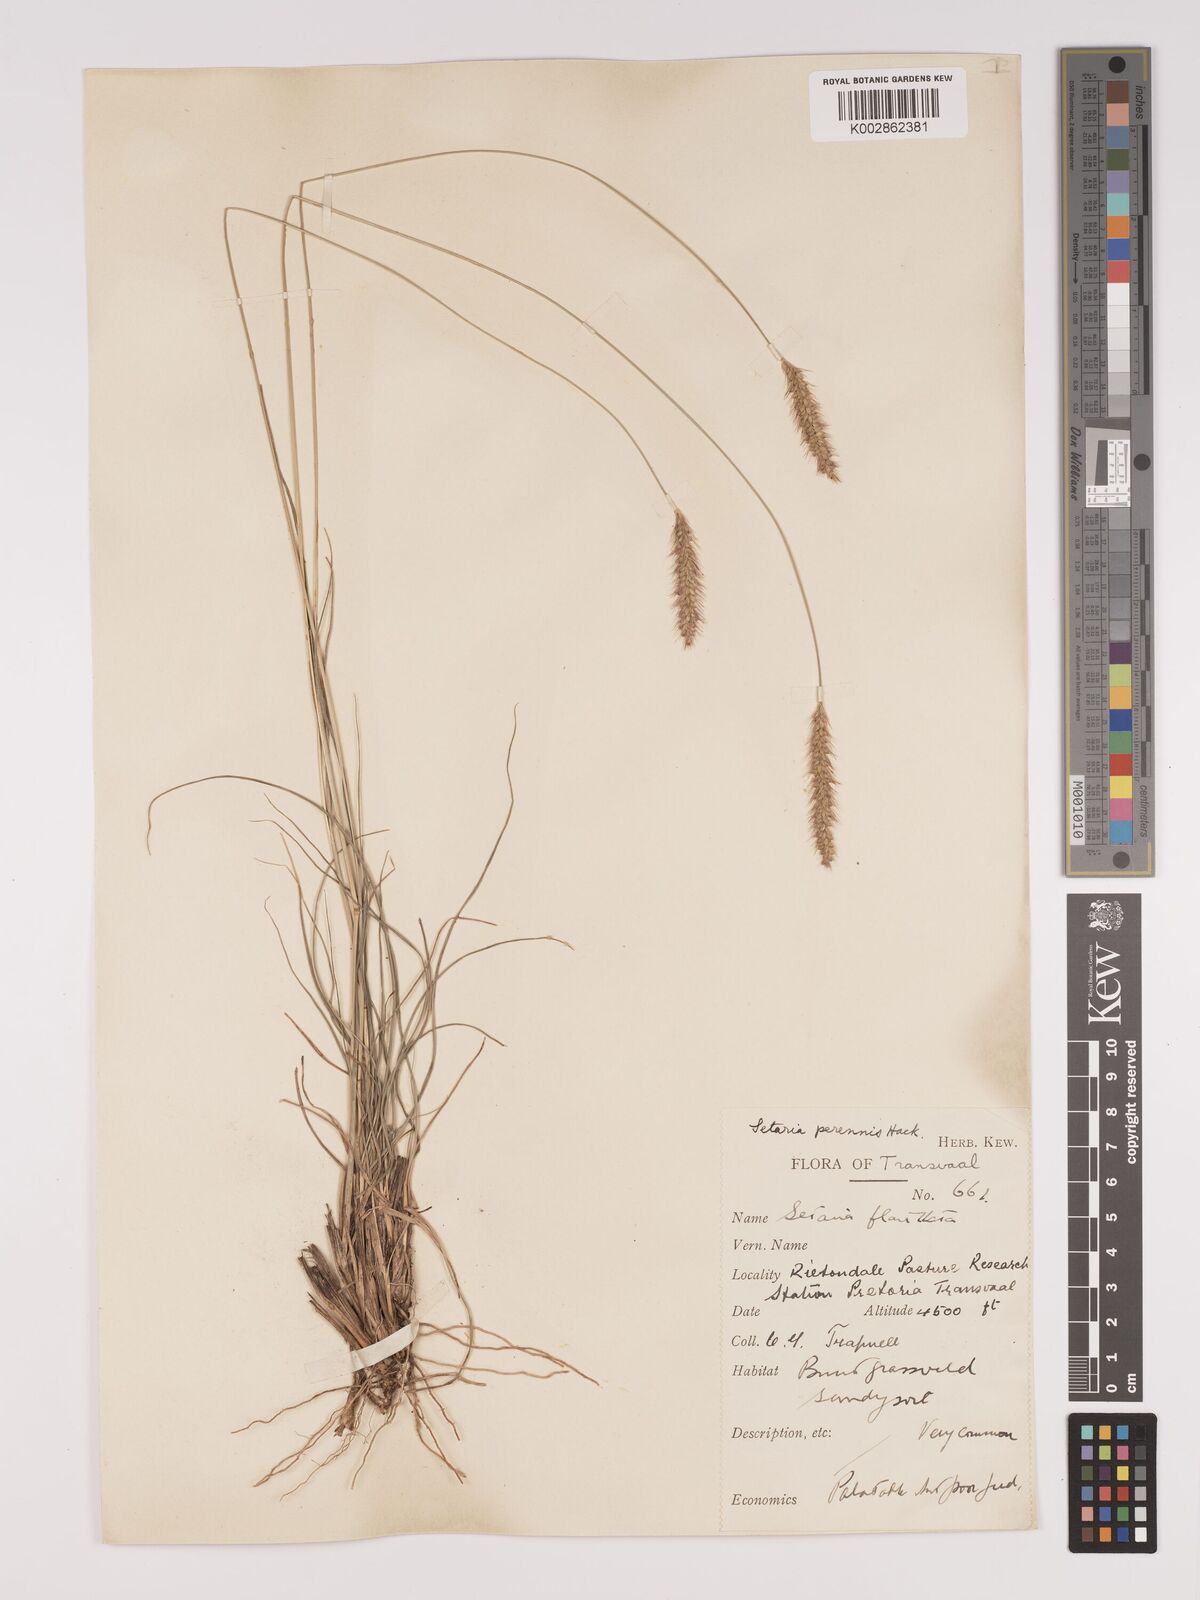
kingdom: Plantae
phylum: Tracheophyta
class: Liliopsida
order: Poales
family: Poaceae
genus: Setaria
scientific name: Setaria sphacelata
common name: African bristlegrass
